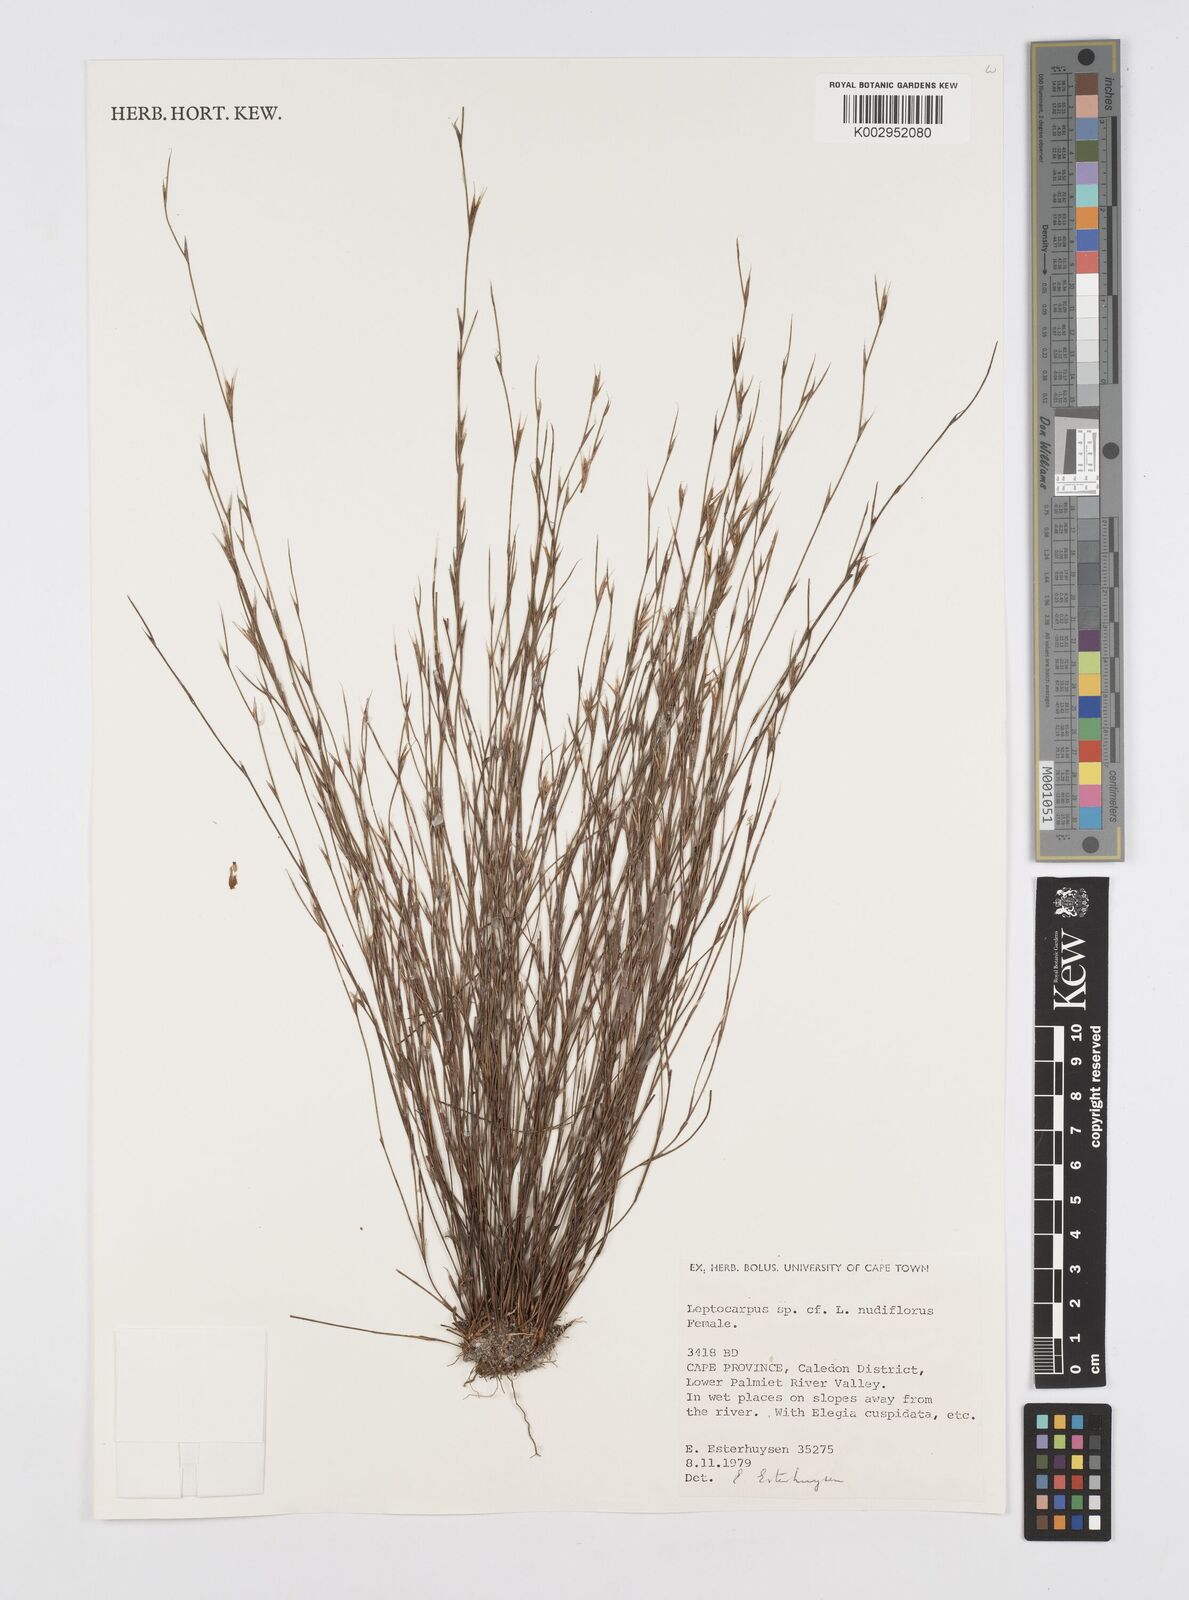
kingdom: Plantae
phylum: Tracheophyta
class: Liliopsida
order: Poales
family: Restionaceae
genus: Restio
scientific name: Restio nudiflorus
